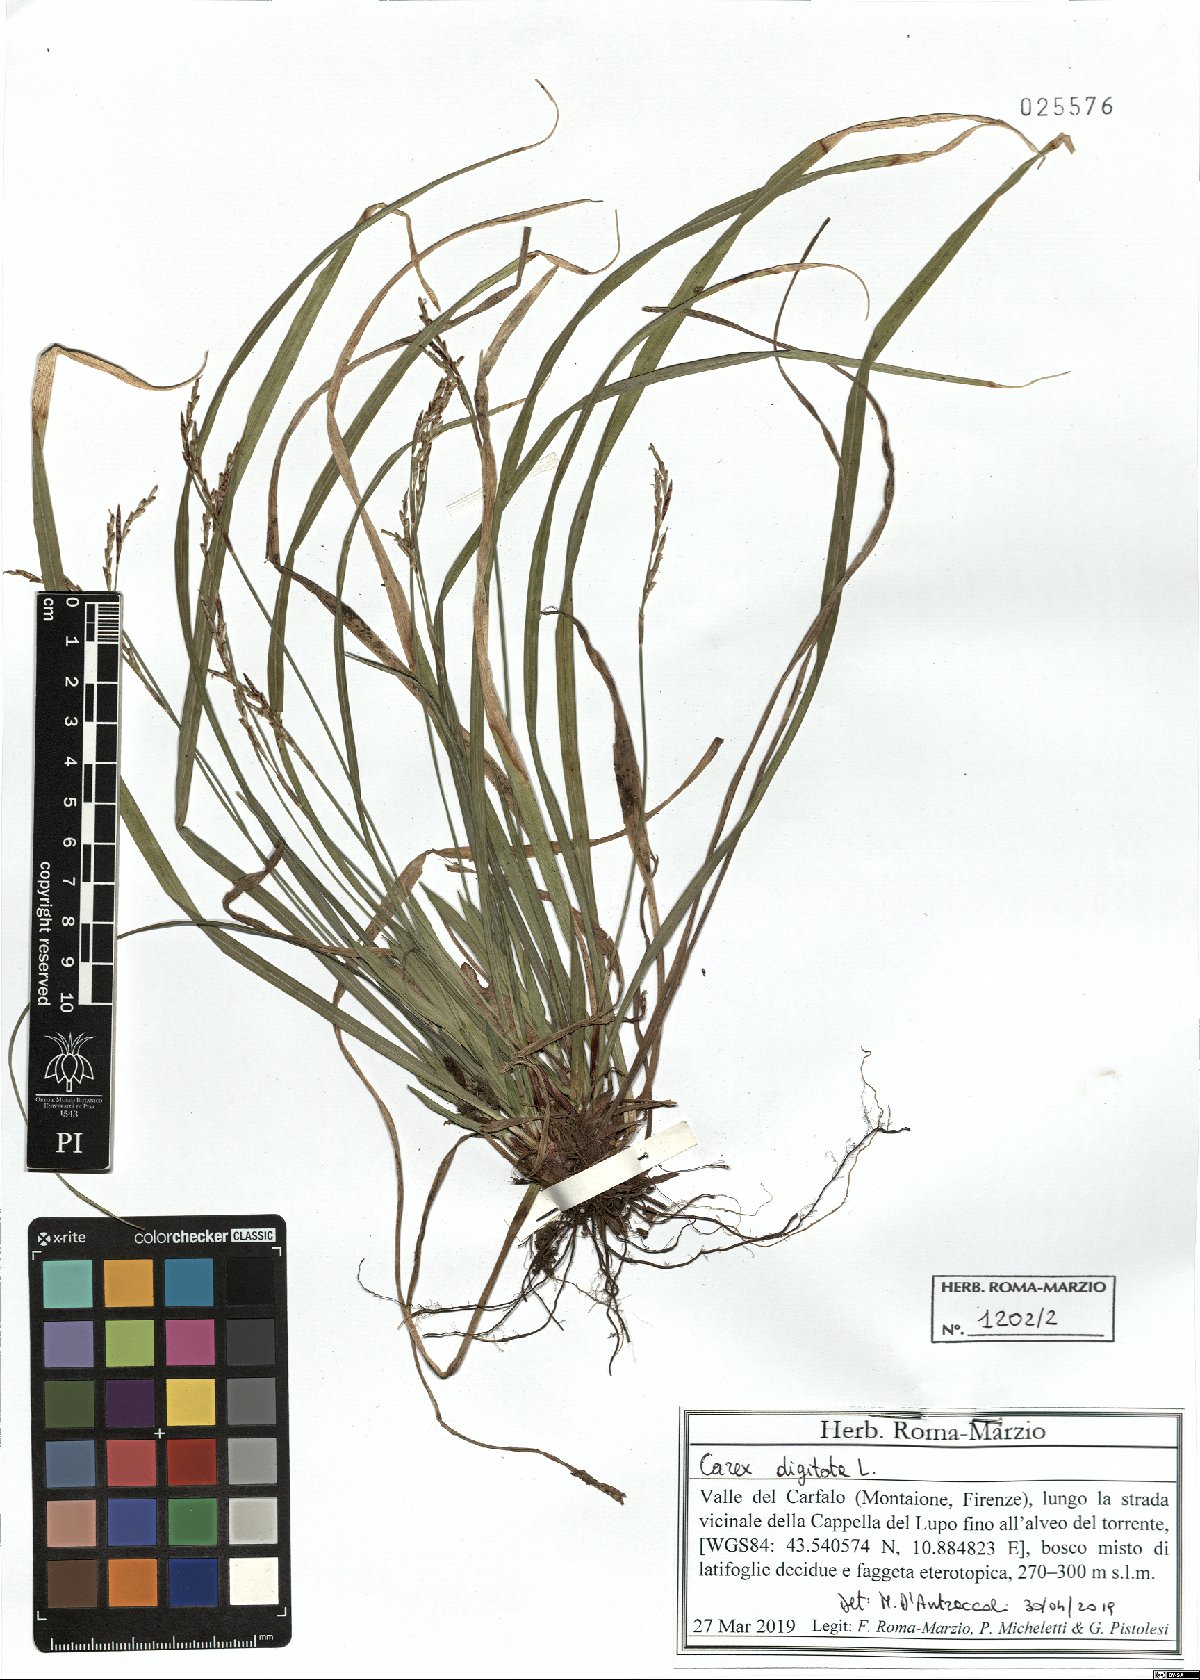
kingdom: Plantae
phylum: Tracheophyta
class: Liliopsida
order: Poales
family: Cyperaceae
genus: Carex
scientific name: Carex digitata
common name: Fingered sedge
